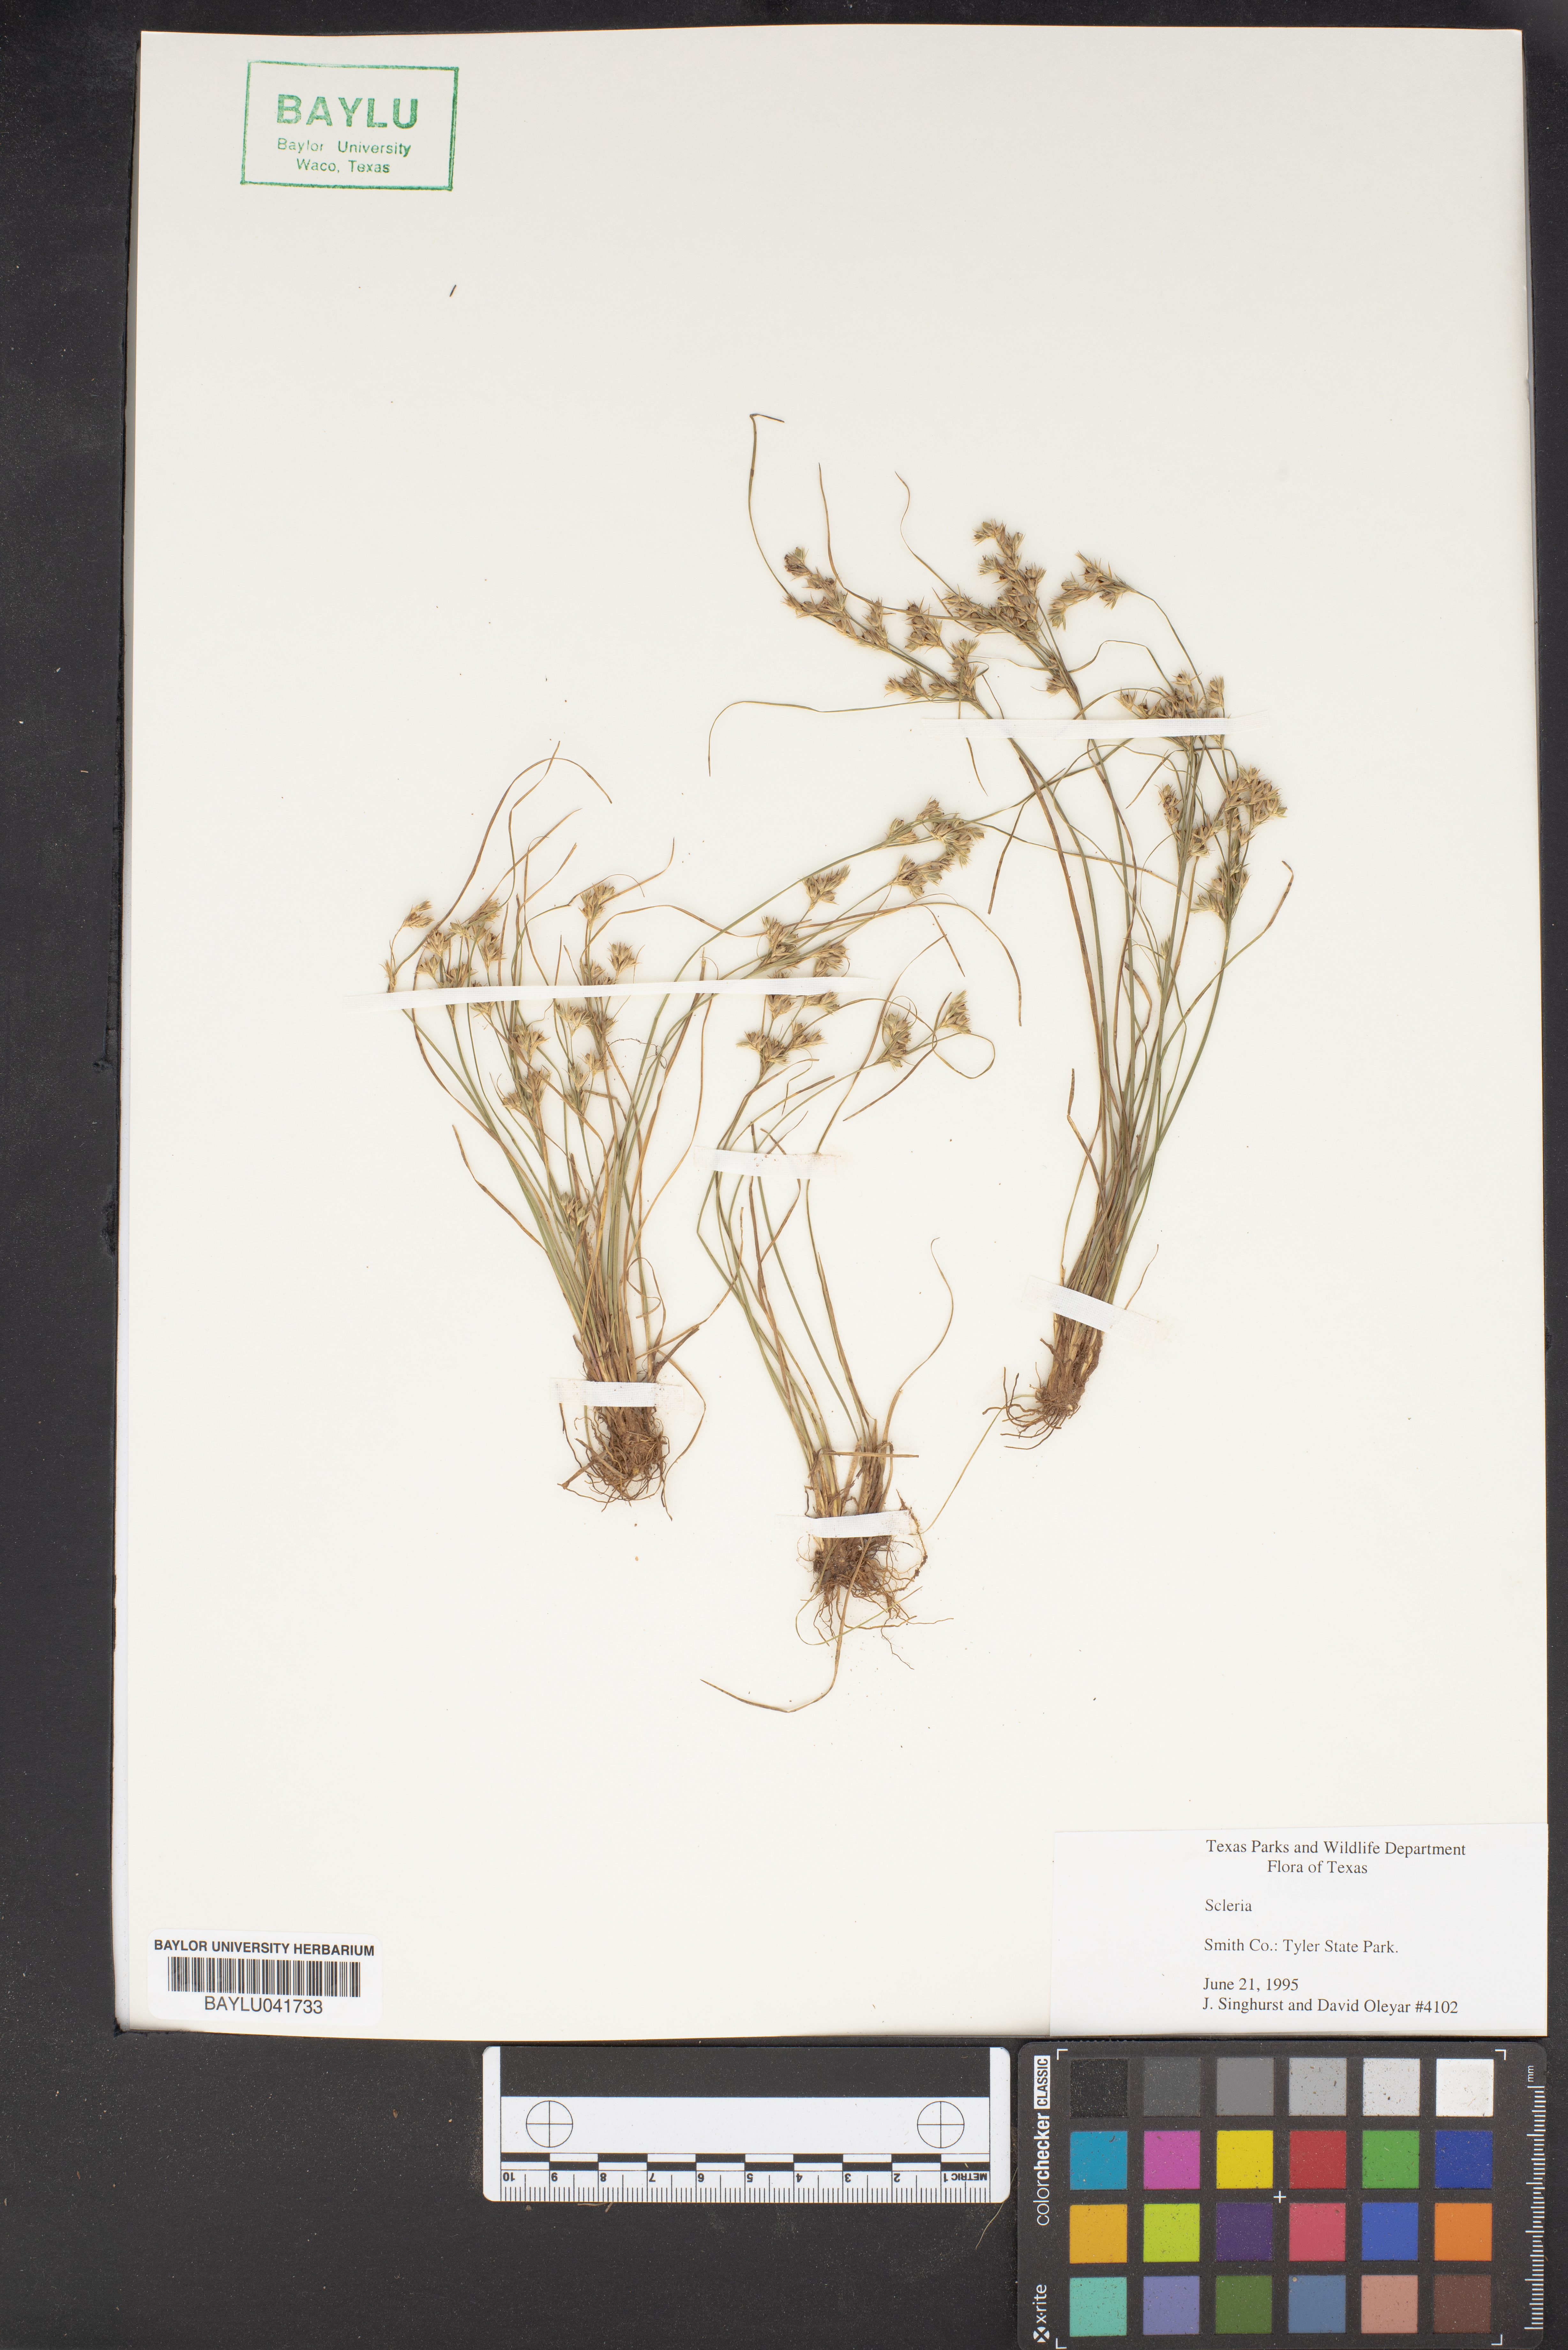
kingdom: Plantae
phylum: Tracheophyta
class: Liliopsida
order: Poales
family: Cyperaceae
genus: Scleria
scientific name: Scleria
